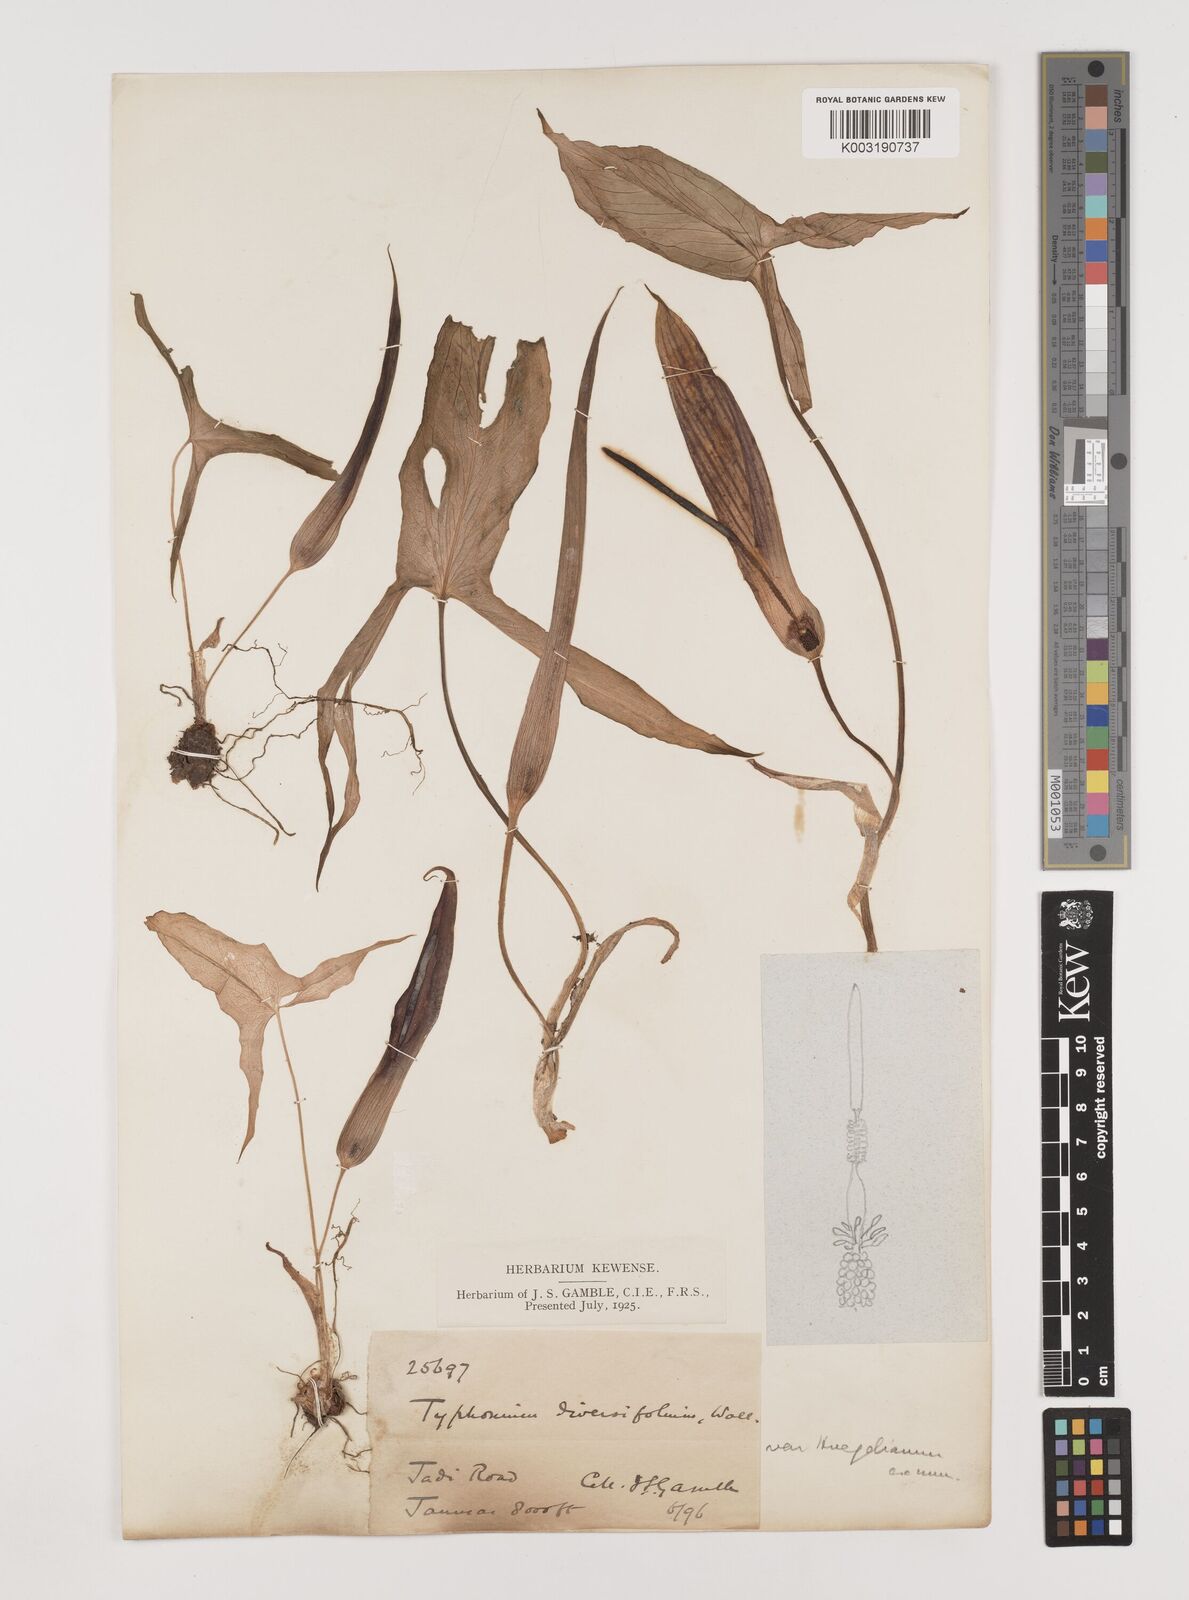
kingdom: Plantae
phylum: Tracheophyta
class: Liliopsida
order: Alismatales
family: Araceae
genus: Sauromatum
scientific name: Sauromatum diversifolium
